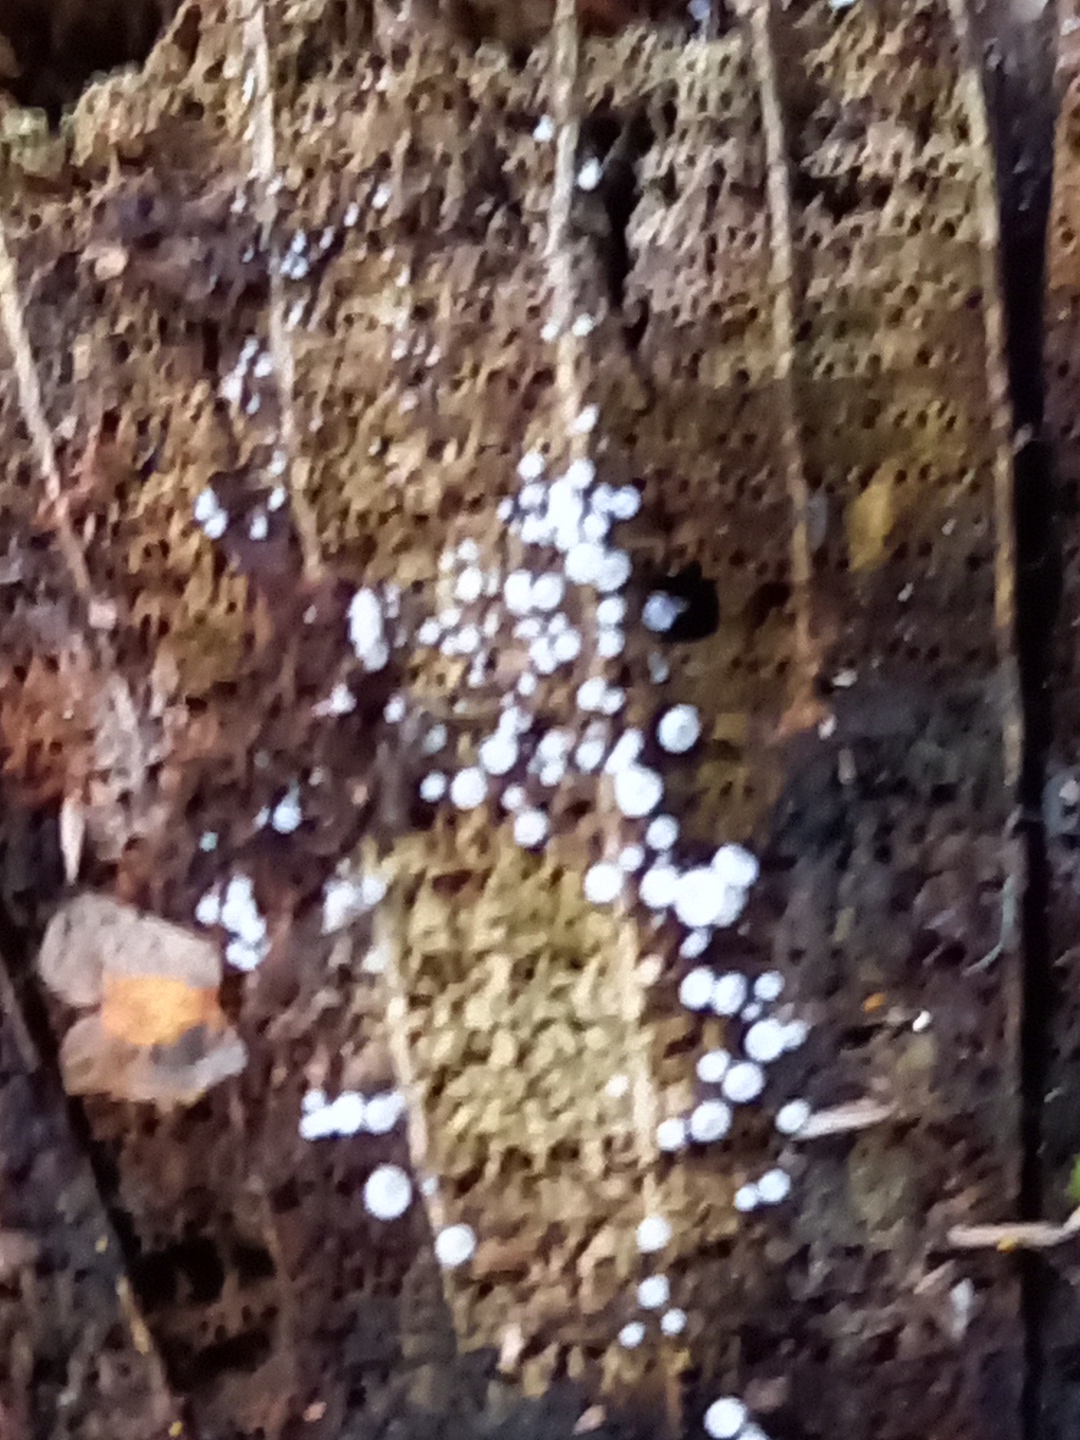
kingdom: Fungi
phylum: Ascomycota
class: Leotiomycetes
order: Helotiales
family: Hyaloscyphaceae
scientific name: Hyaloscyphaceae
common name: frynseskivefamilien
